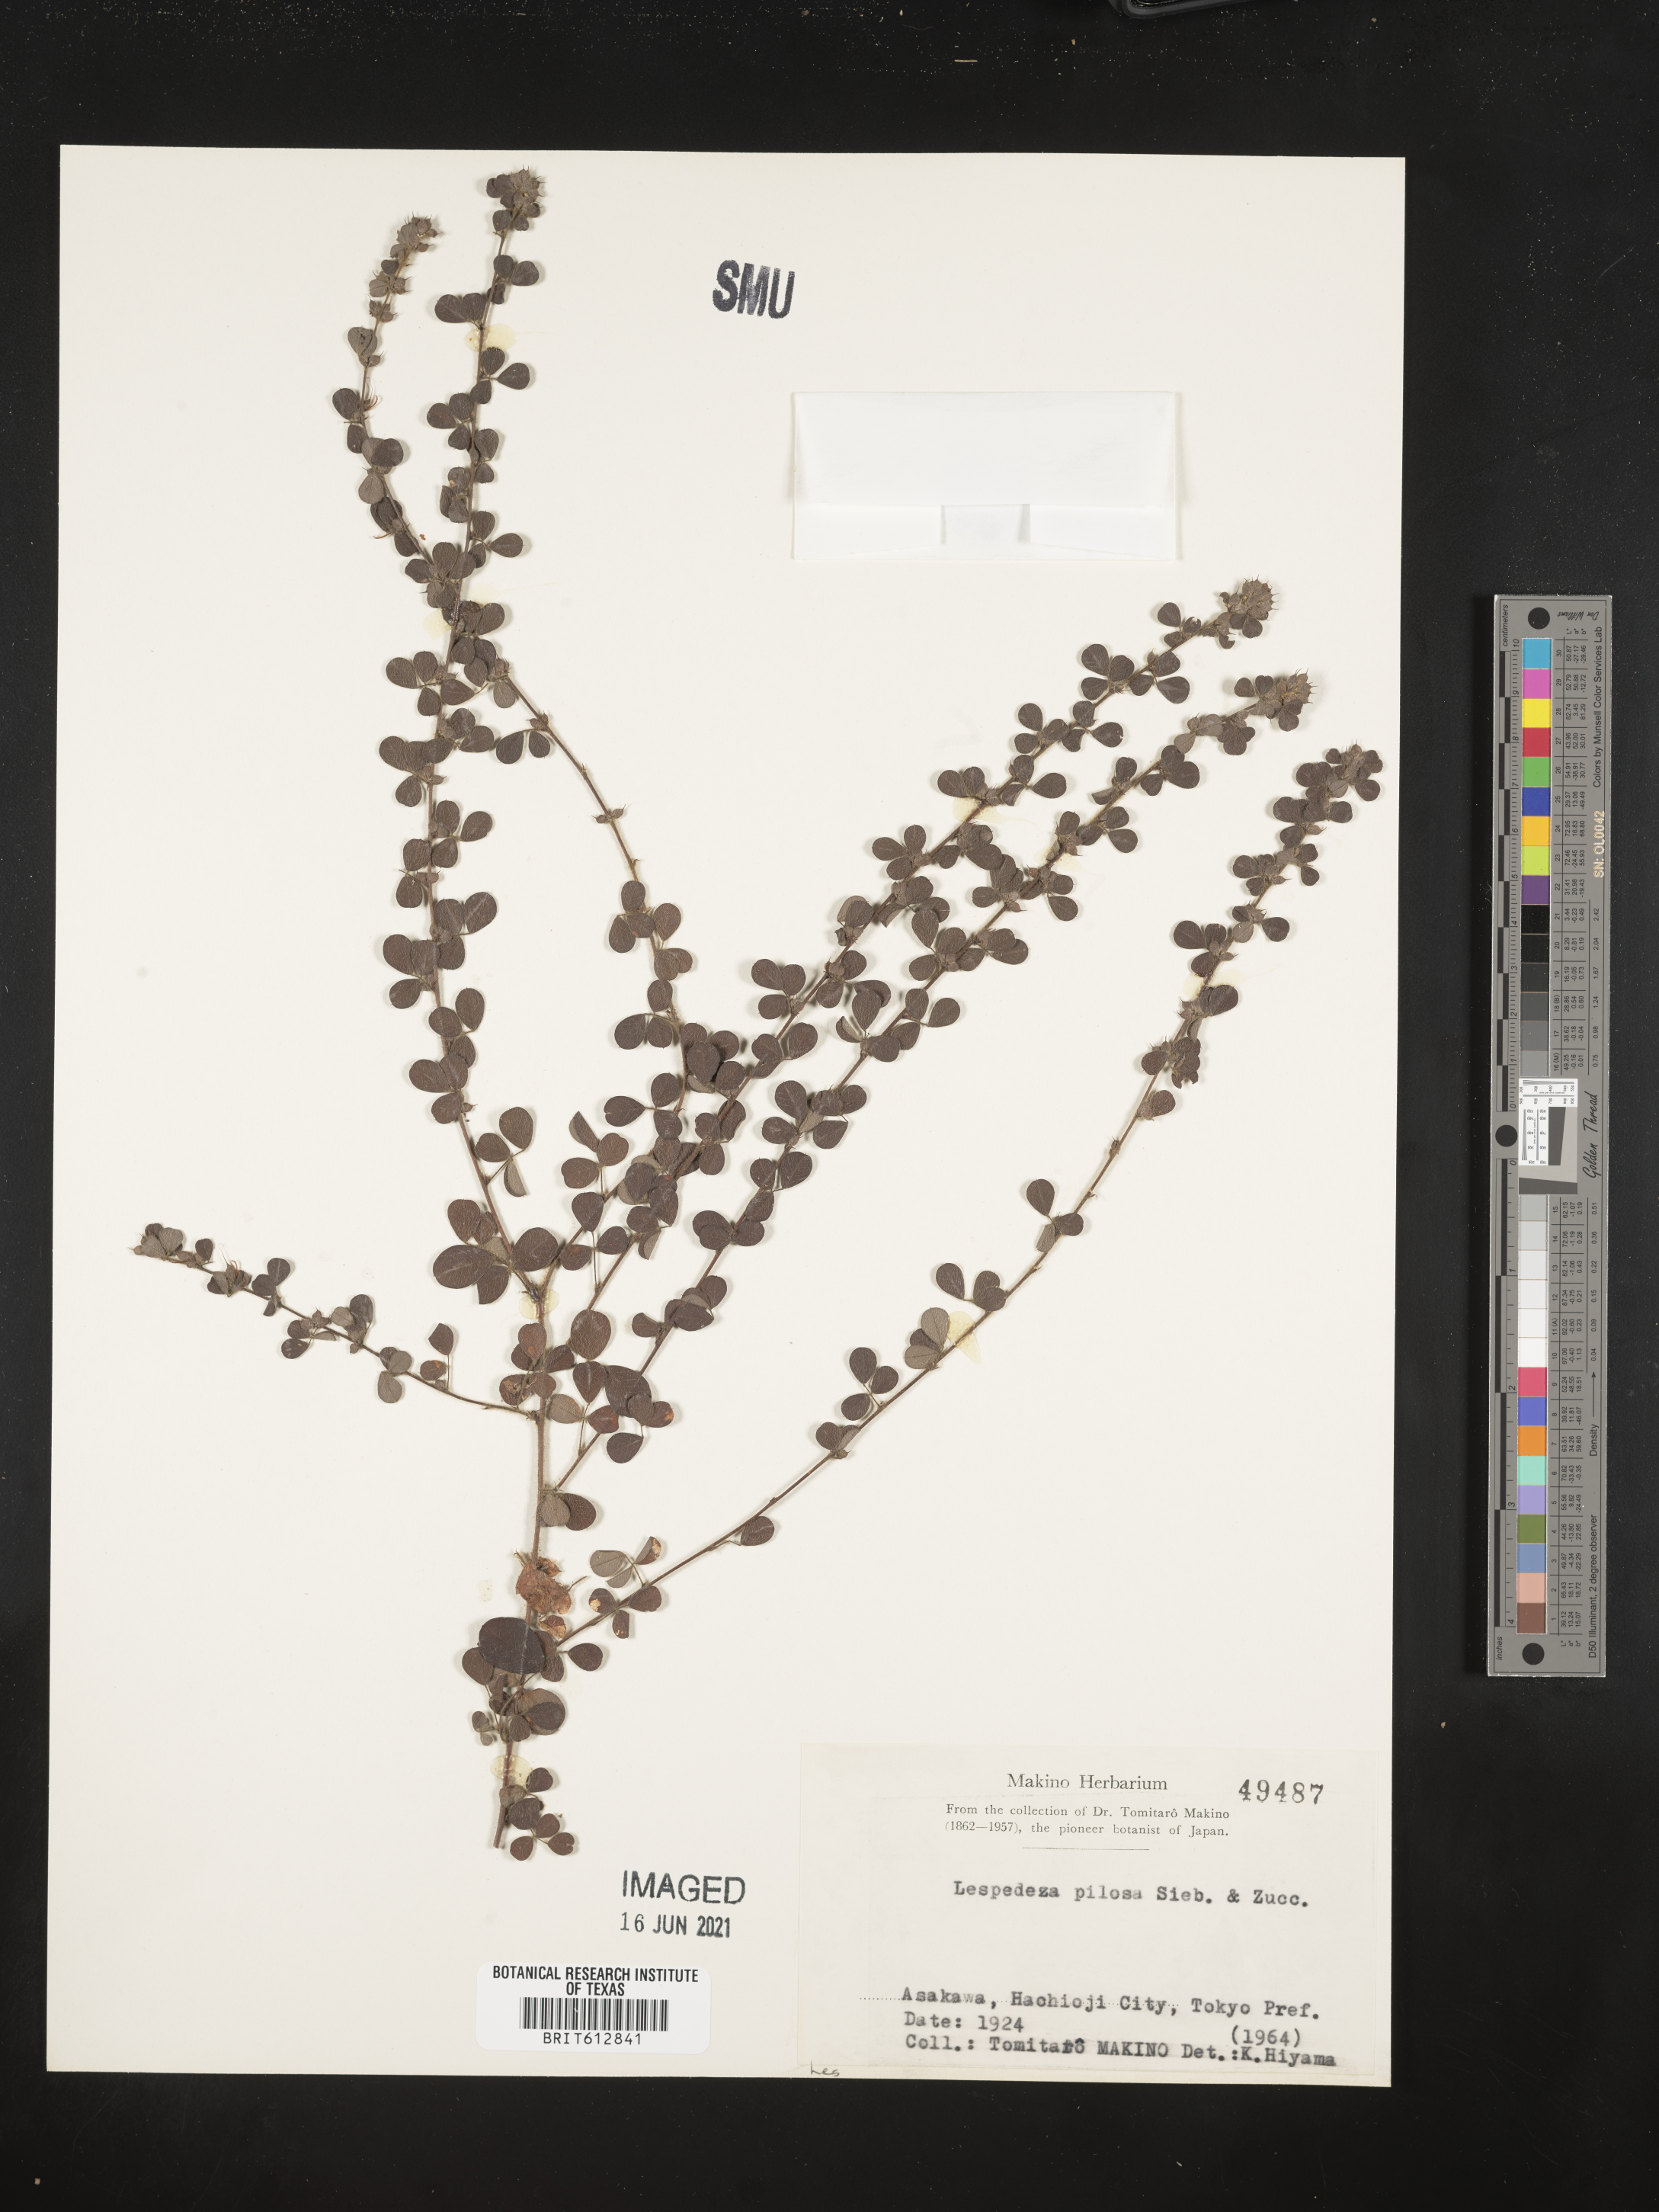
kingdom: Plantae
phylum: Tracheophyta
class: Magnoliopsida
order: Fabales
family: Fabaceae
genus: Lespedeza
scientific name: Lespedeza pilosa
